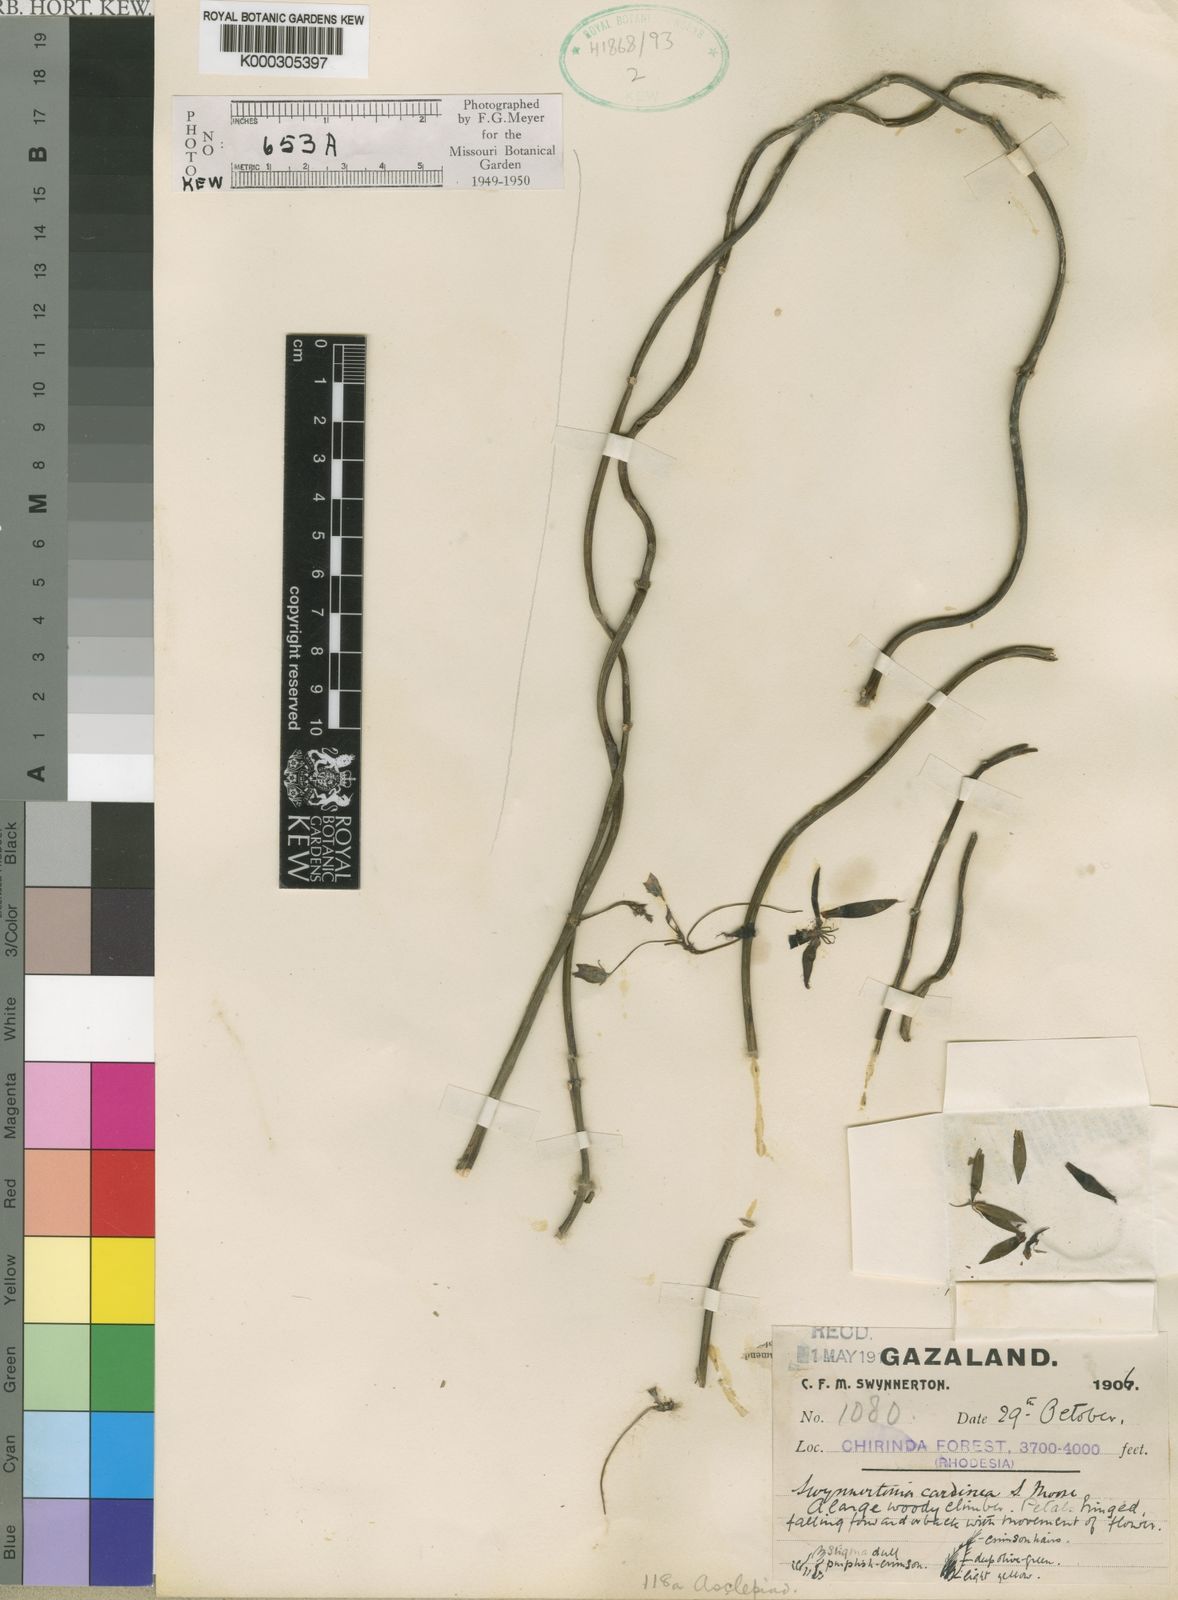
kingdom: Plantae
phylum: Tracheophyta
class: Magnoliopsida
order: Gentianales
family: Apocynaceae
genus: Neoschumannia
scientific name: Neoschumannia cardinea
